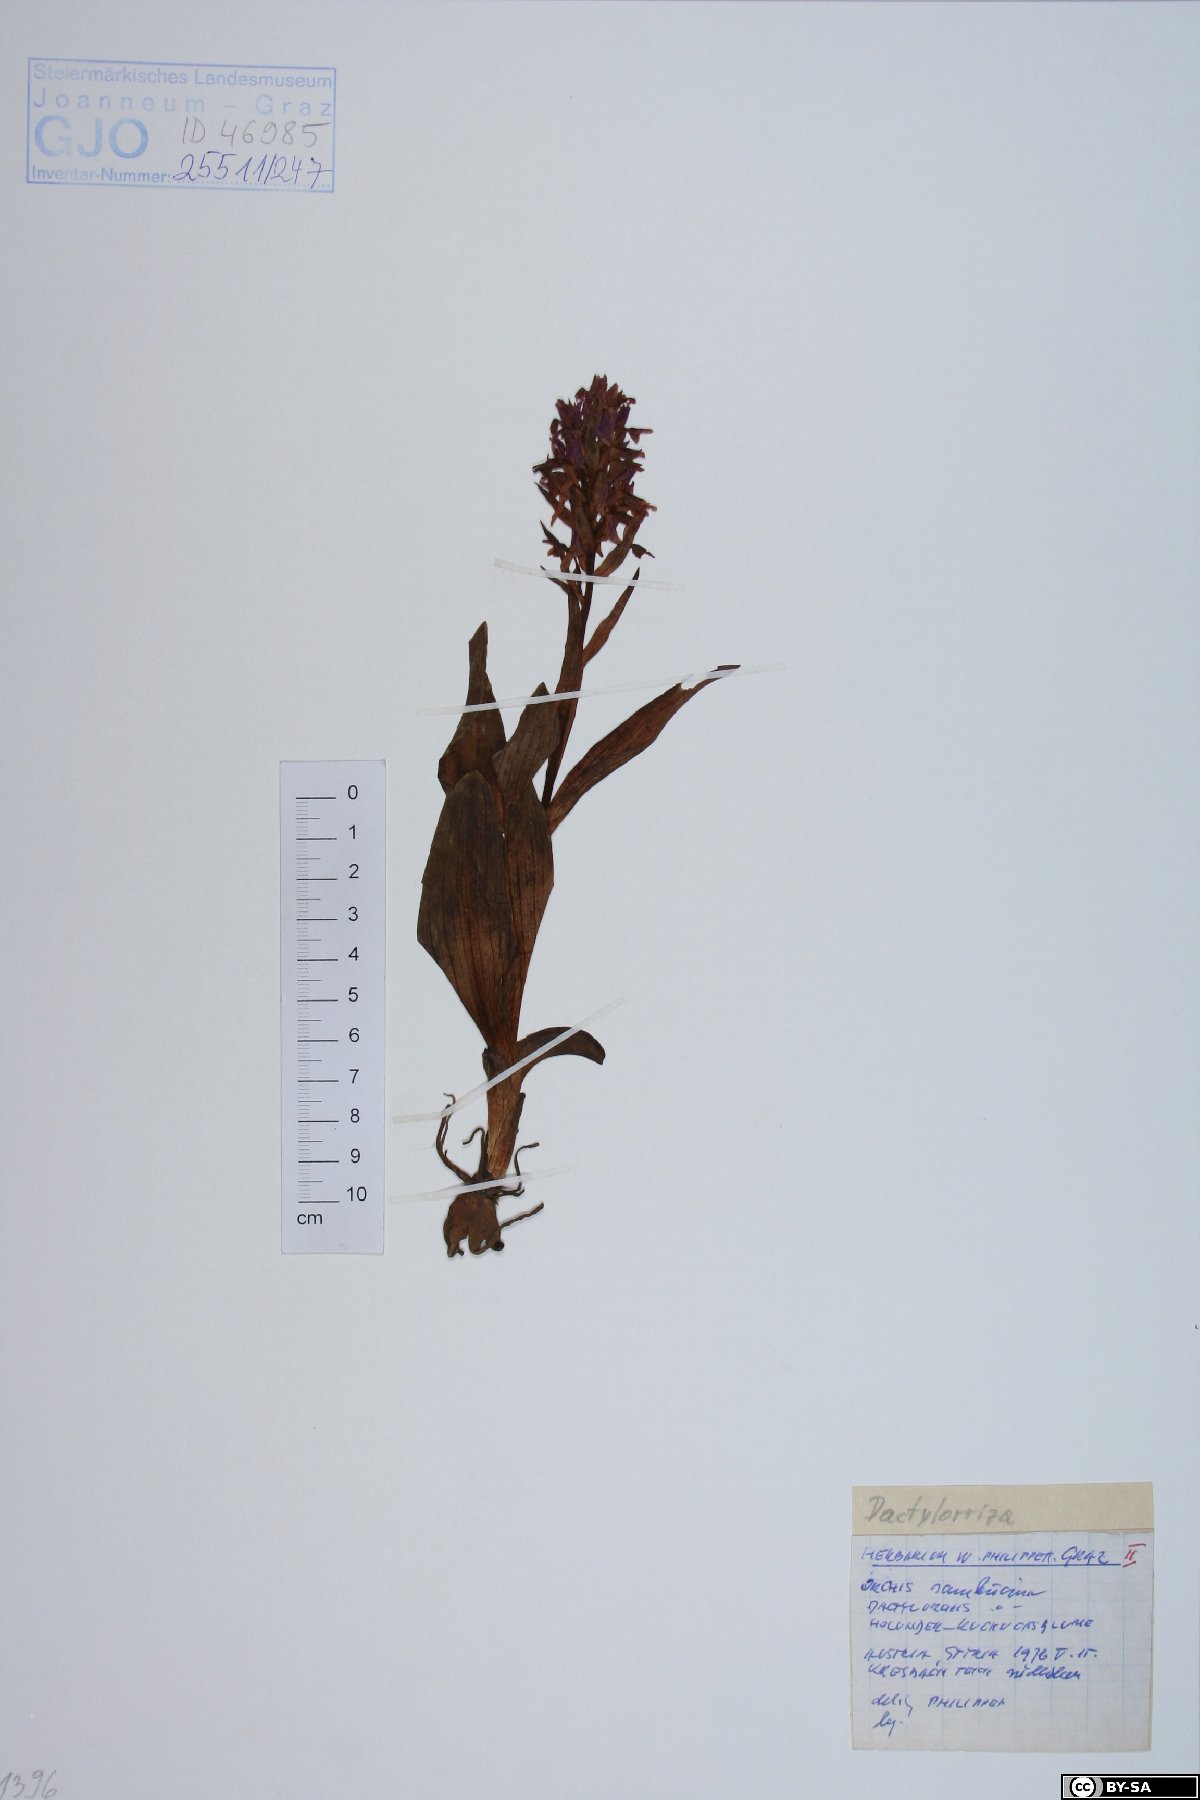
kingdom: Plantae
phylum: Tracheophyta
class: Liliopsida
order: Asparagales
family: Orchidaceae
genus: Dactylorhiza
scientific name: Dactylorhiza sambucina
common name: Elder-flowered orchid
